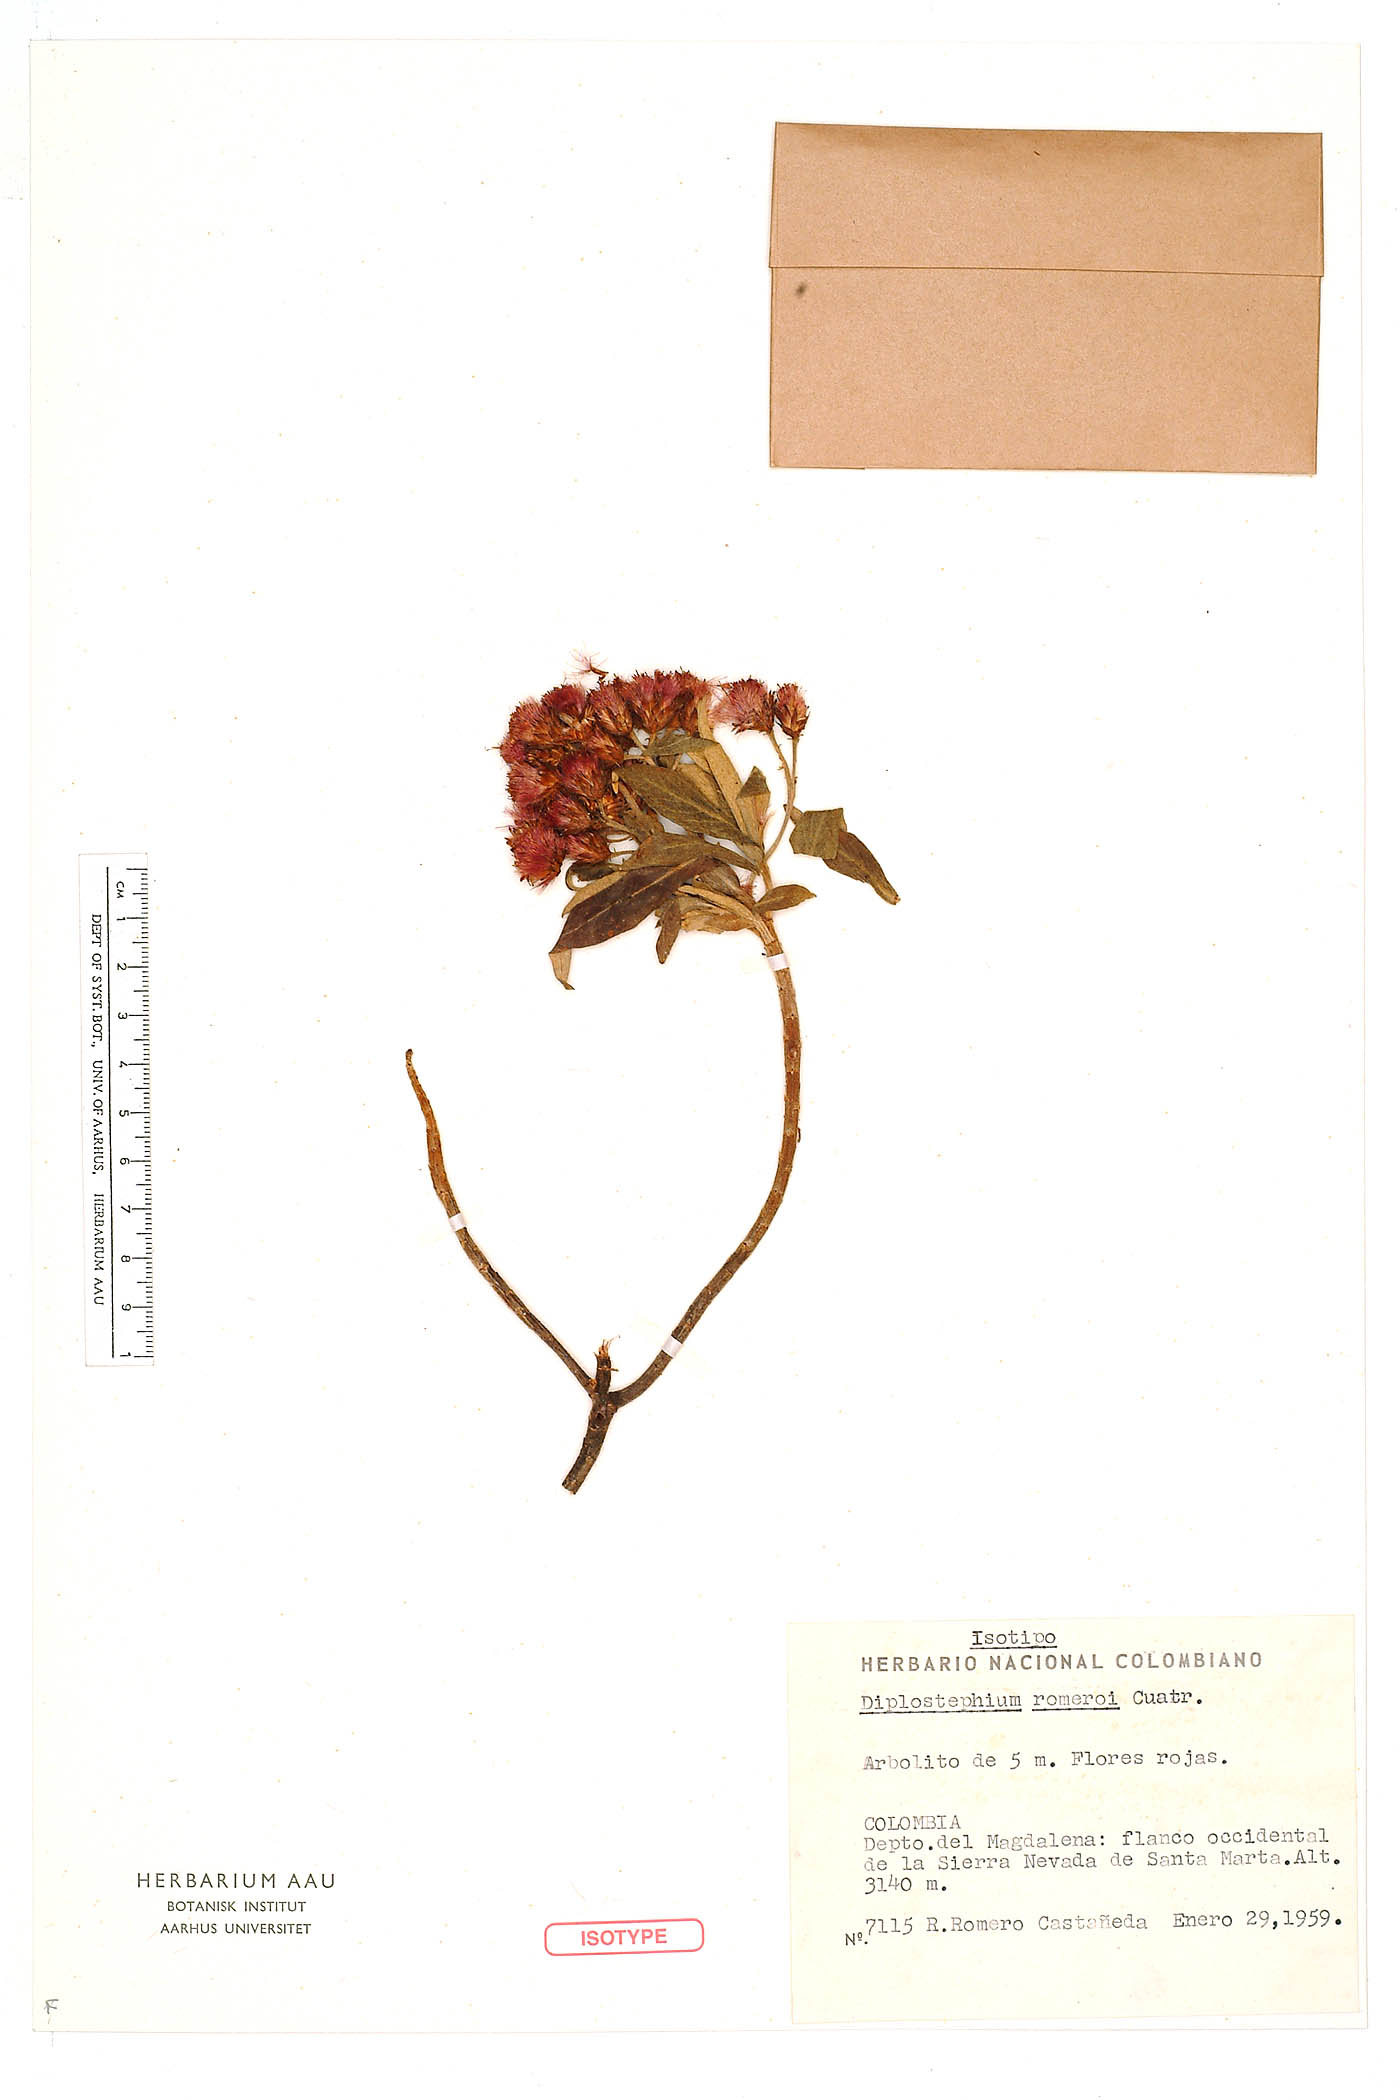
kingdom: Plantae
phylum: Tracheophyta
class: Magnoliopsida
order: Asterales
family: Asteraceae
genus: Linochilus
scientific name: Linochilus romeroi
